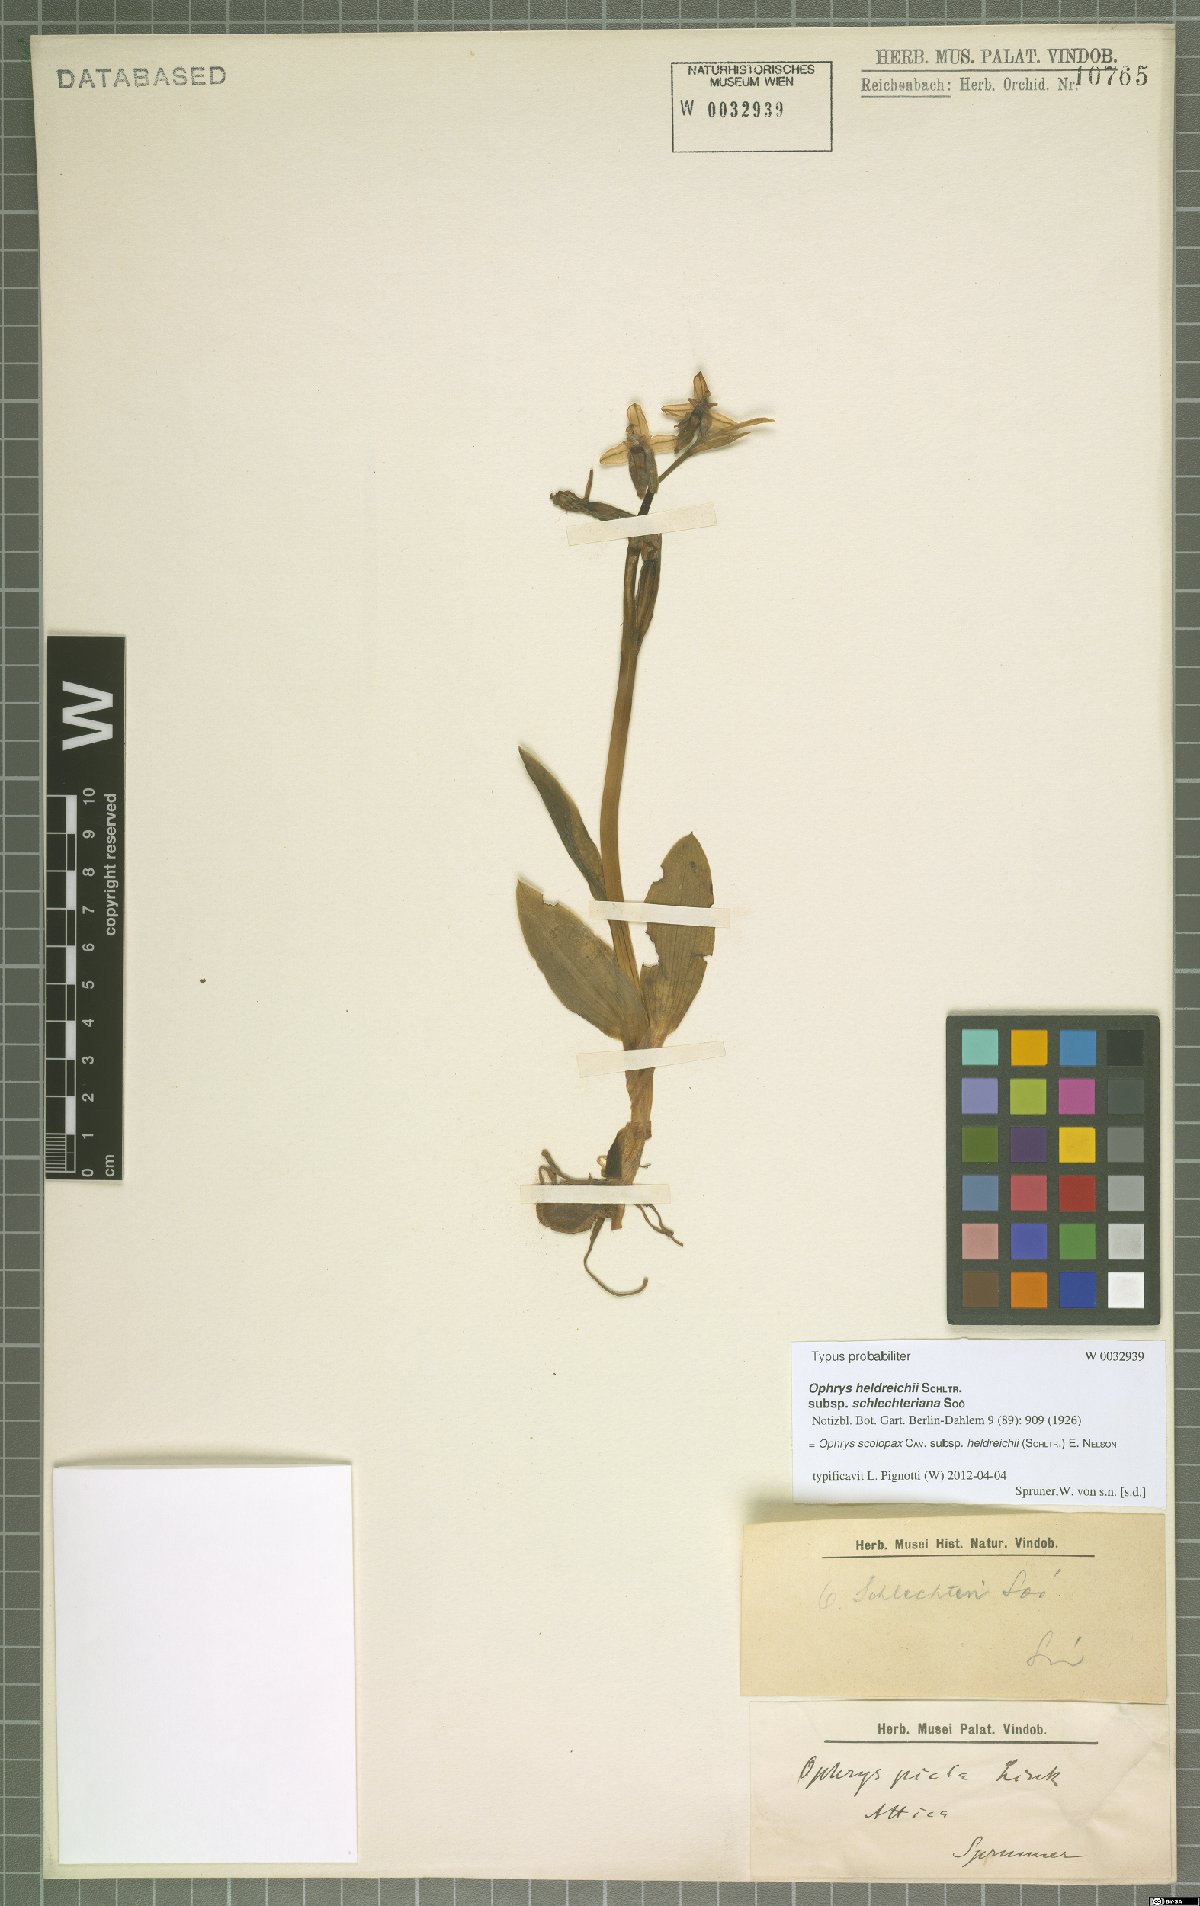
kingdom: Plantae
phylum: Tracheophyta
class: Liliopsida
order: Asparagales
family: Orchidaceae
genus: Ophrys
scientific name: Ophrys scolopax
